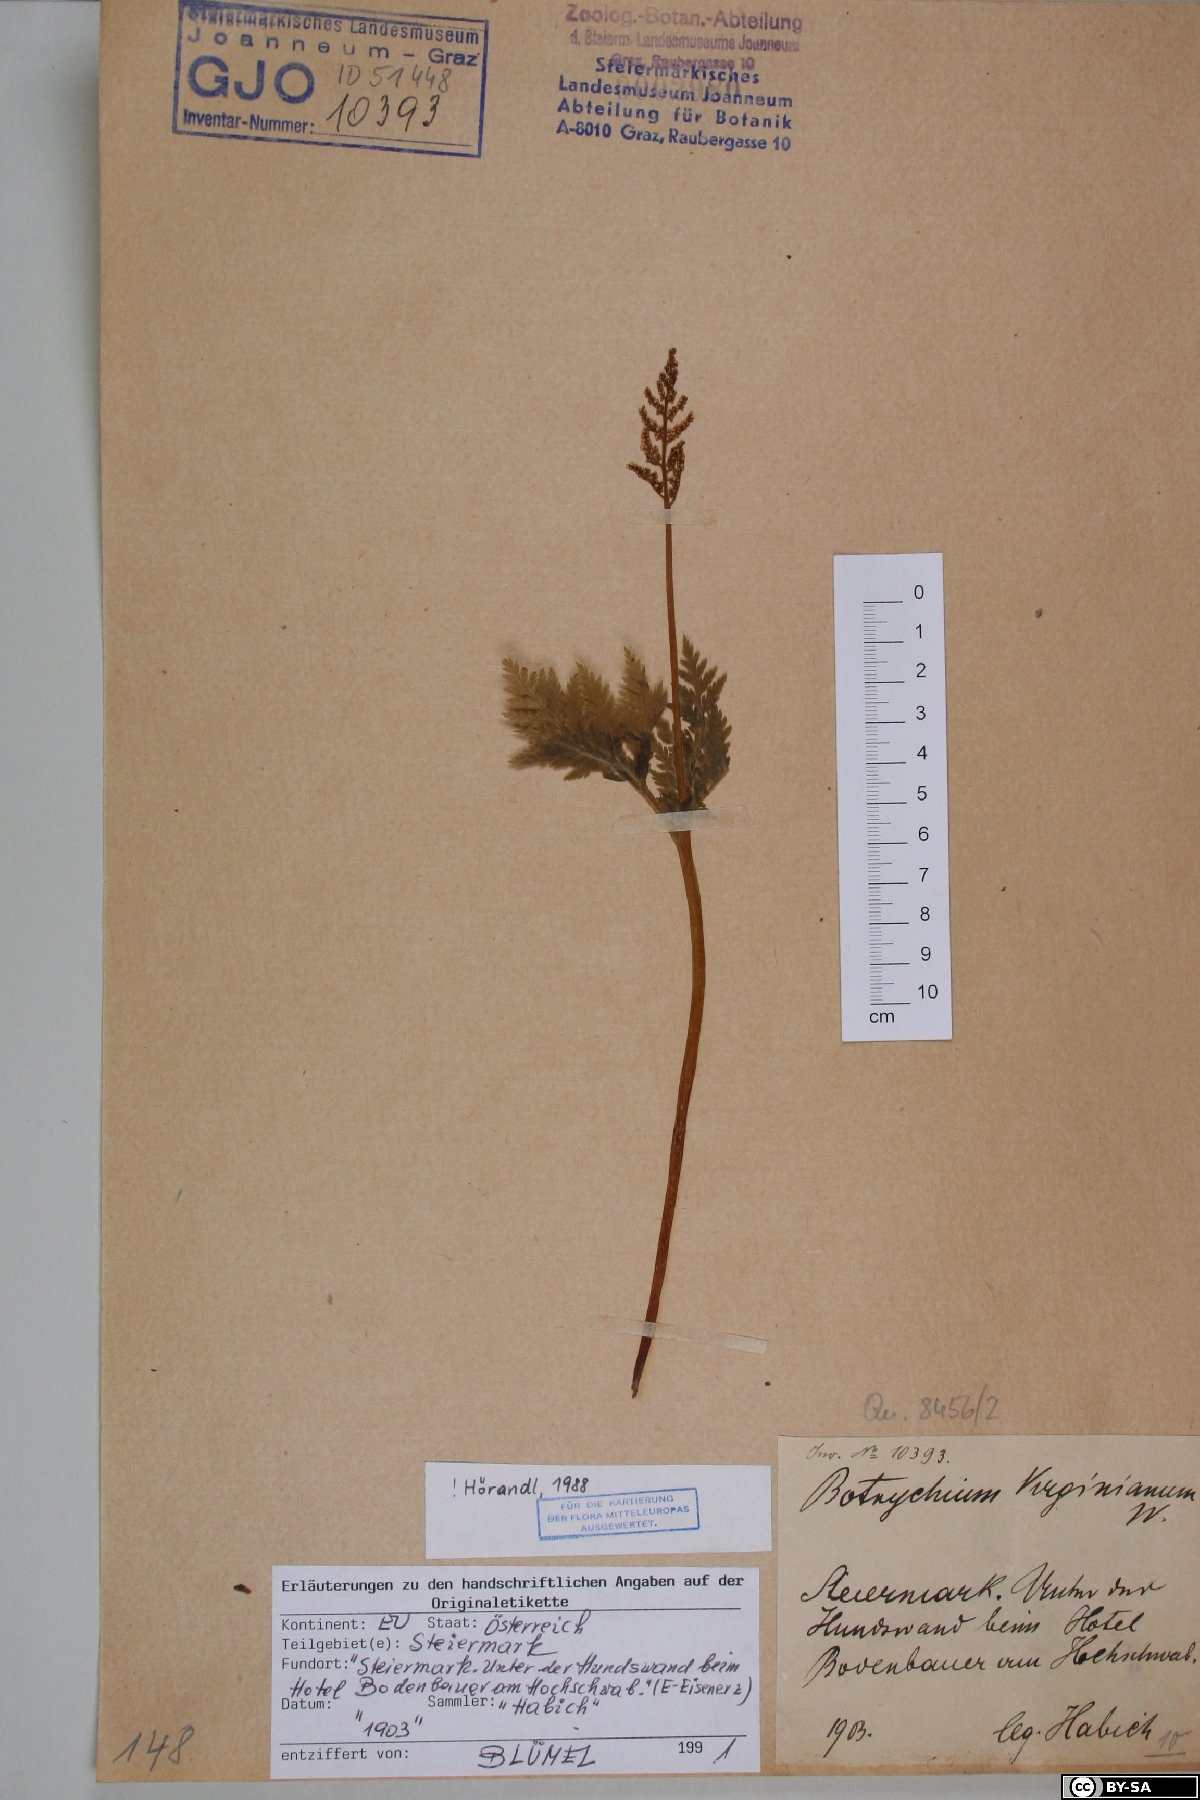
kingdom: Plantae
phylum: Tracheophyta
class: Polypodiopsida
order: Ophioglossales
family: Ophioglossaceae
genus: Botrypus
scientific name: Botrypus virginianus
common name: Common grapefern
